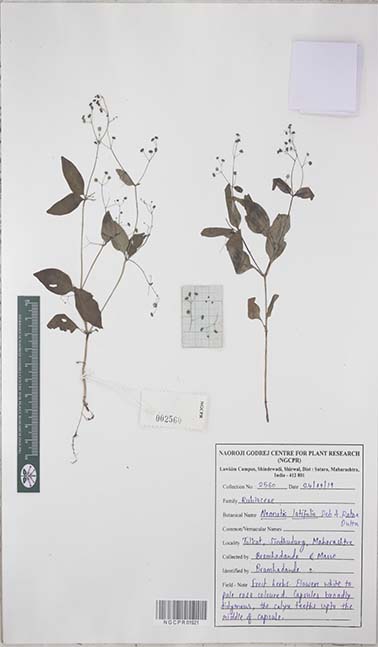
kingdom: Plantae
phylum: Tracheophyta
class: Magnoliopsida
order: Gentianales
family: Rubiaceae
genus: Neanotis
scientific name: Neanotis latifolia
